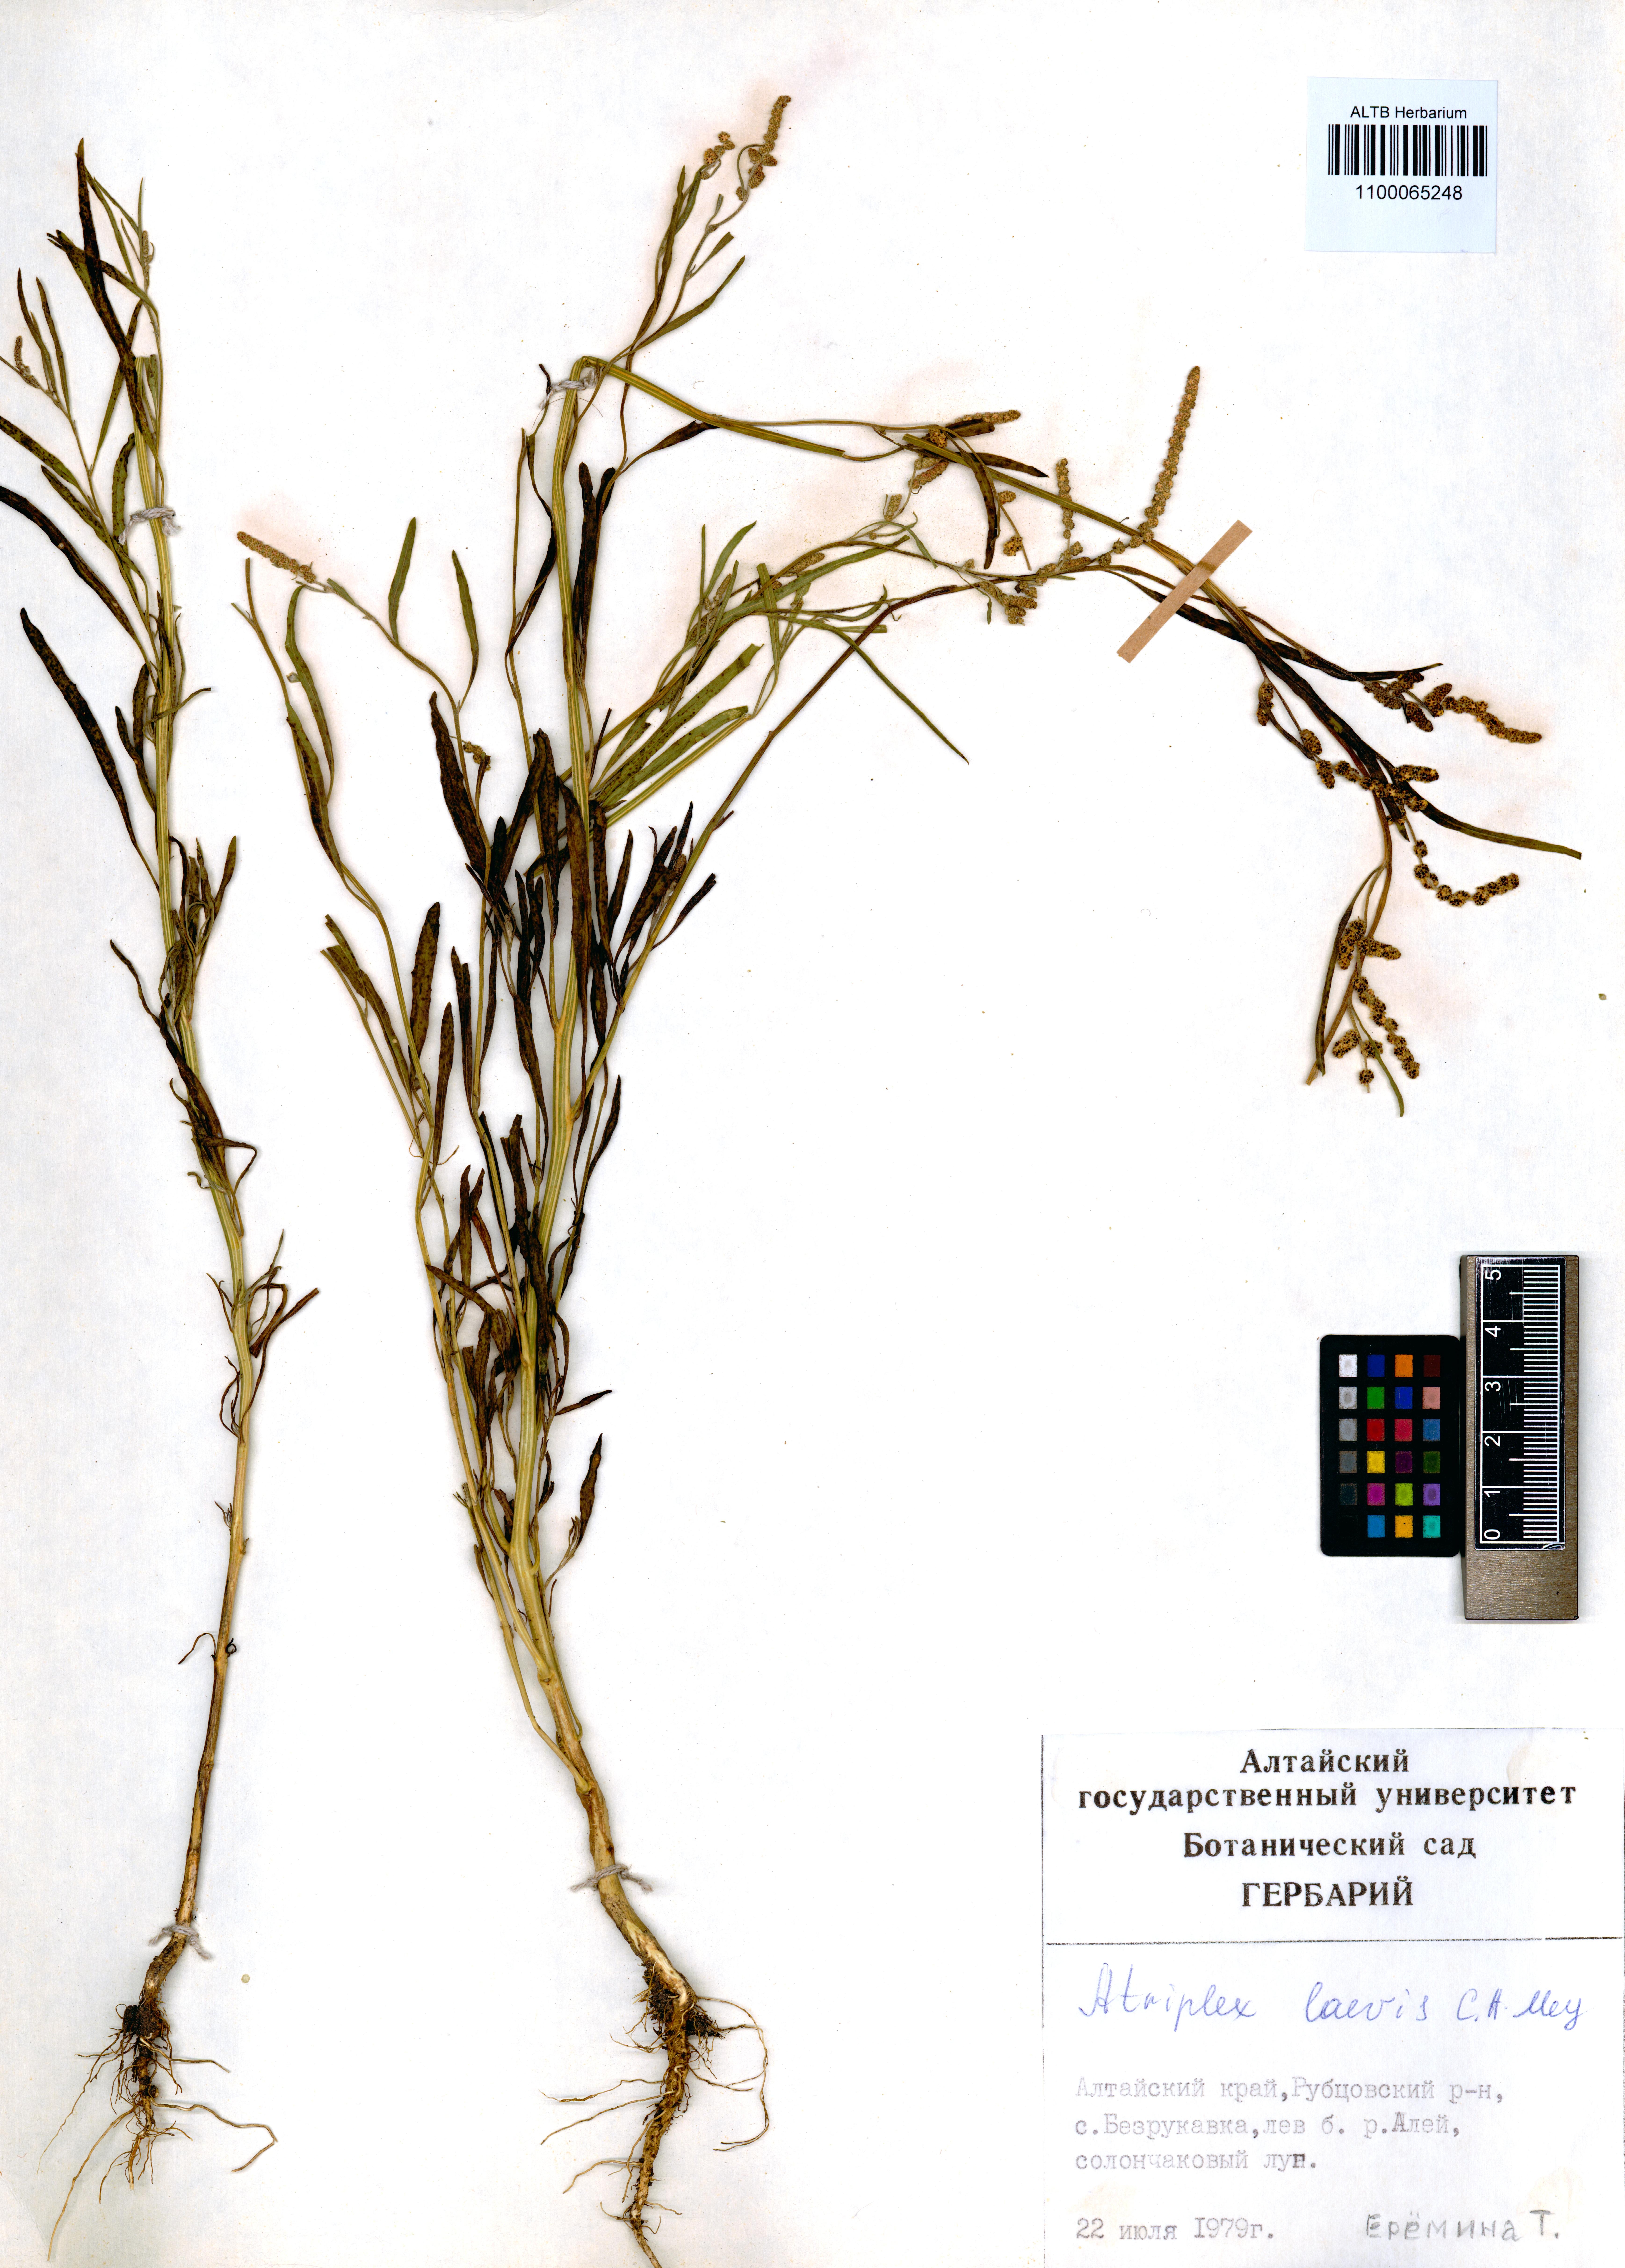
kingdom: Plantae
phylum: Tracheophyta
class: Magnoliopsida
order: Caryophyllales
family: Amaranthaceae
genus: Atriplex
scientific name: Atriplex laevis
